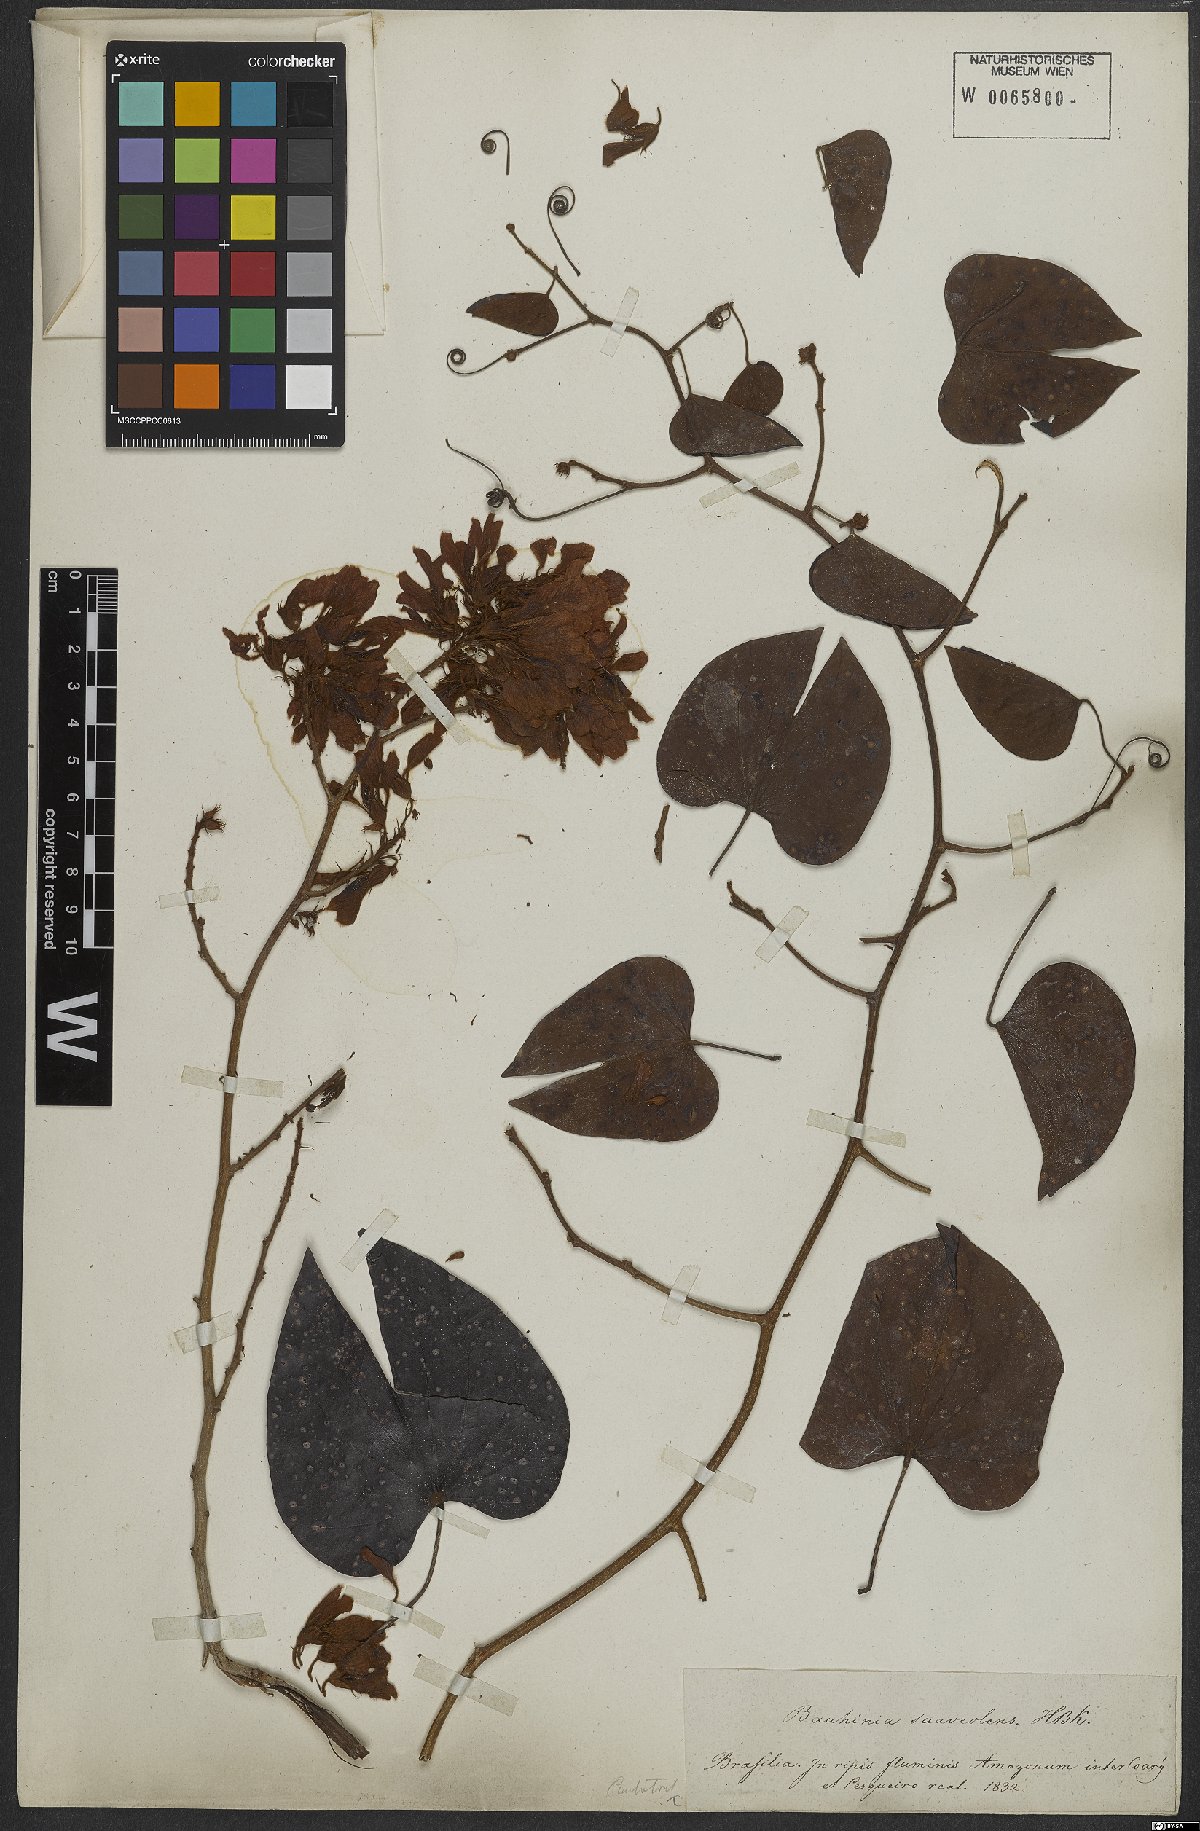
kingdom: Plantae
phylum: Tracheophyta
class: Magnoliopsida
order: Fabales
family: Fabaceae
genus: Schnella
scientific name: Schnella glabra
